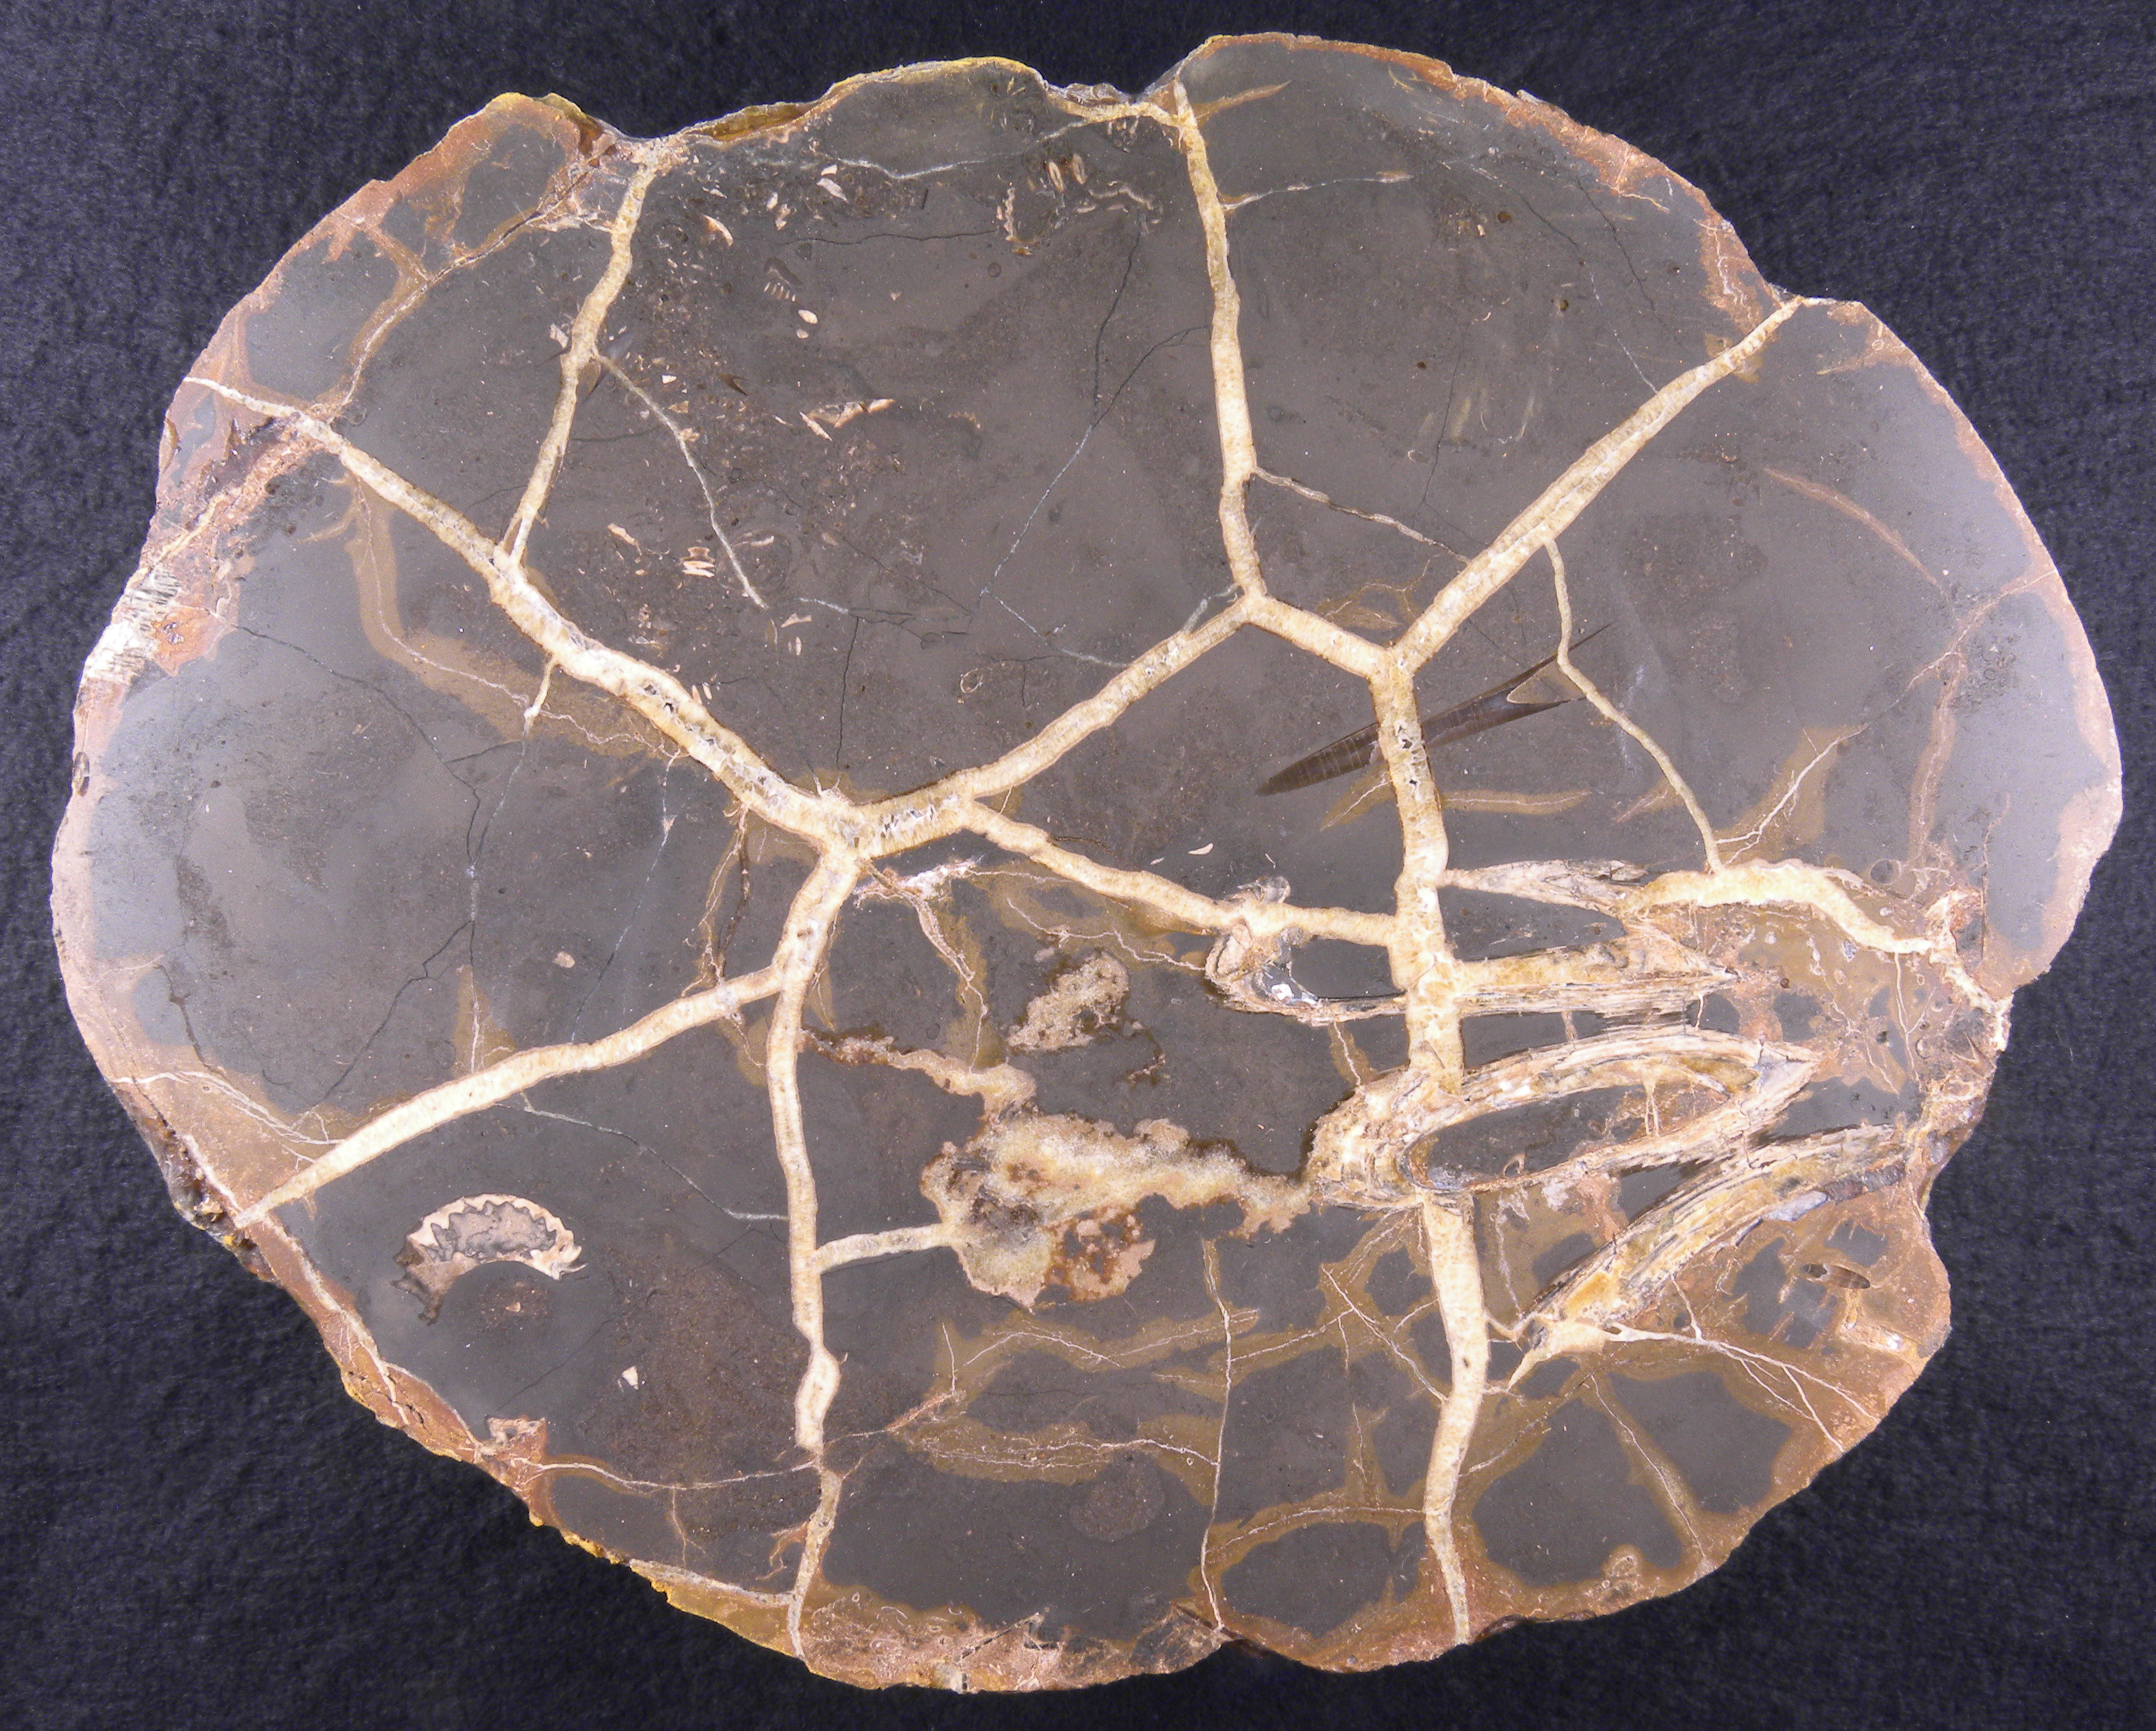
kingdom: Animalia
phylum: Mollusca
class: Cephalopoda
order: Belemnitida
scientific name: Belemnitida
